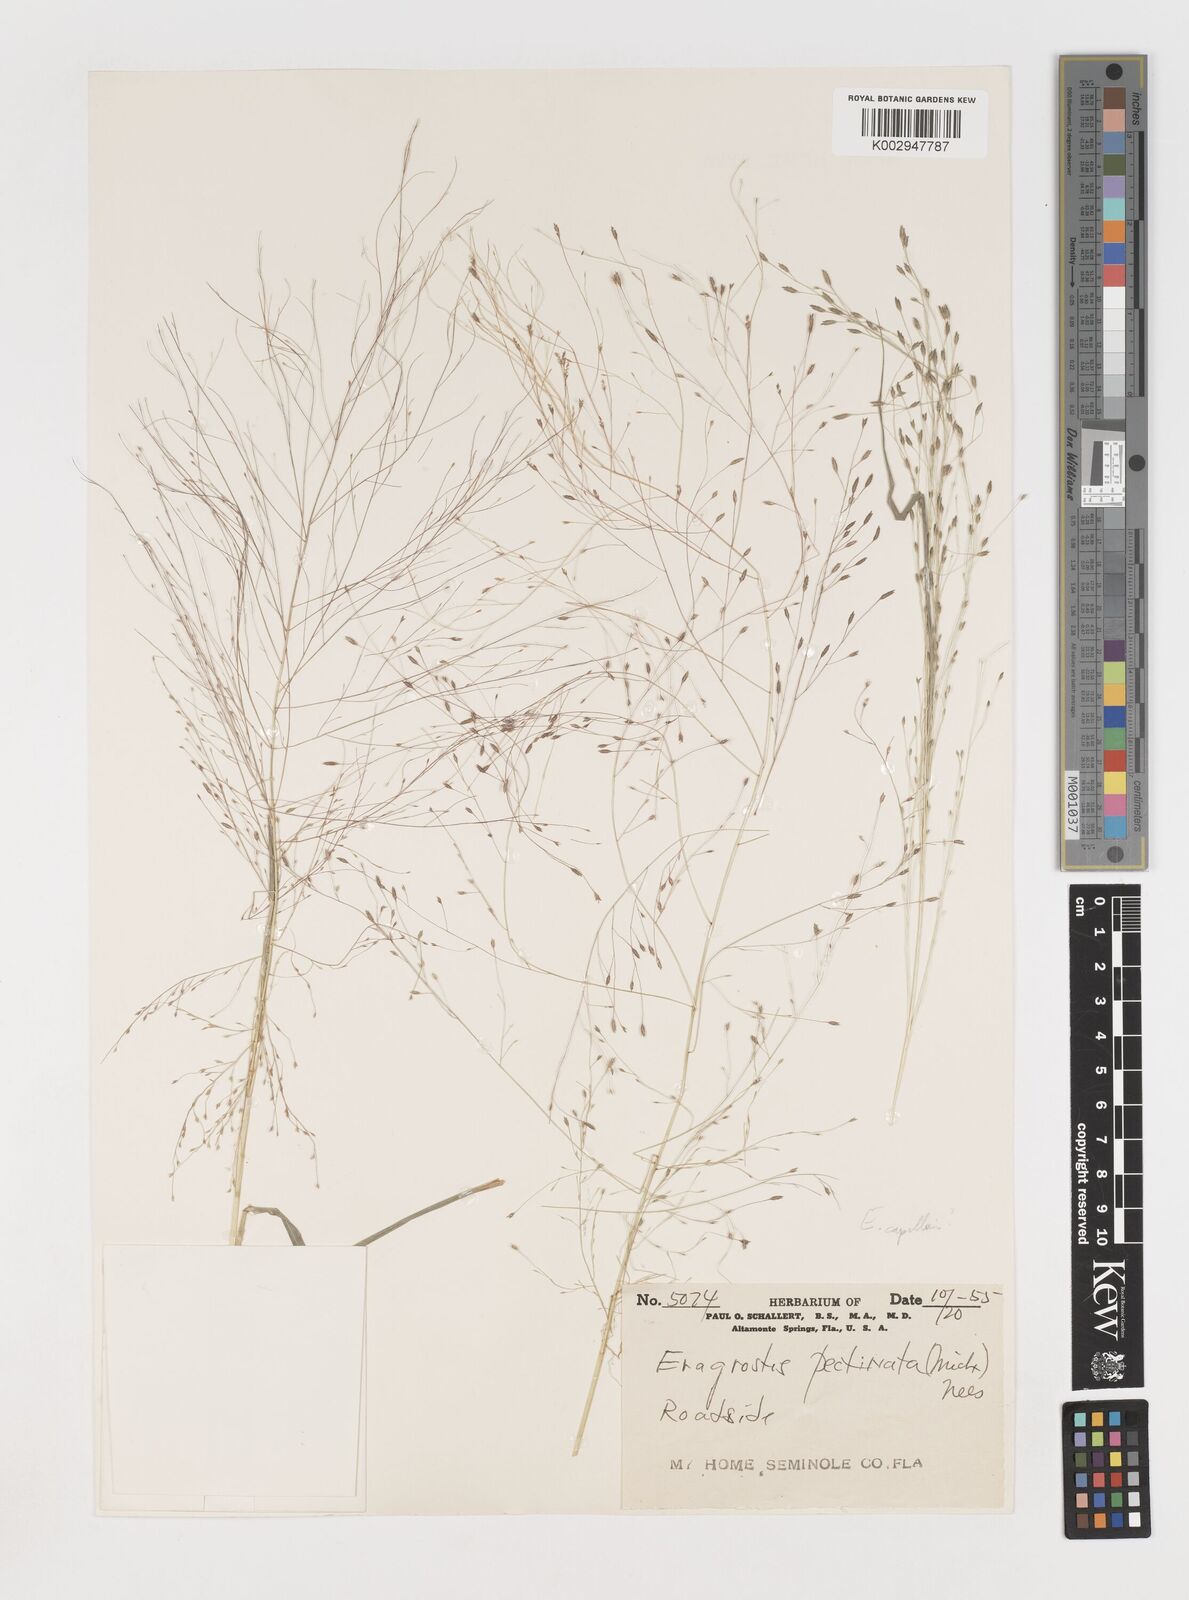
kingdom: Plantae
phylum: Tracheophyta
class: Liliopsida
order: Poales
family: Poaceae
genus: Eragrostis
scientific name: Eragrostis pectinacea
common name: Tufted lovegrass
